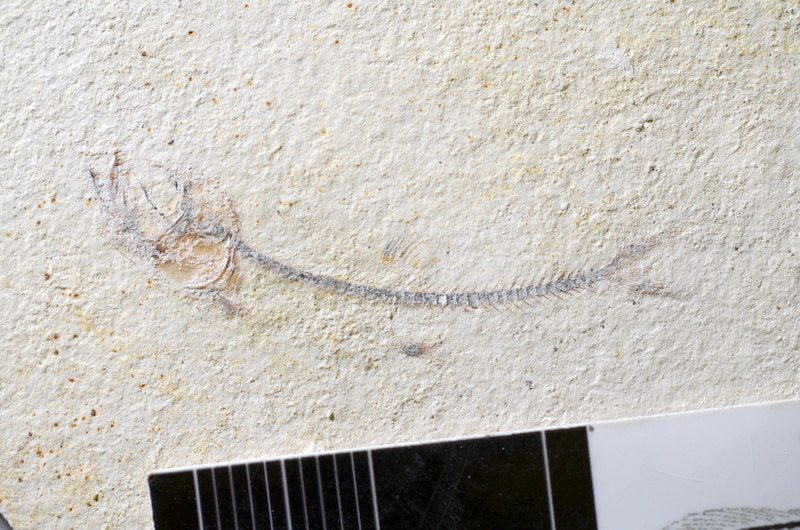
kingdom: Animalia
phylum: Chordata
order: Salmoniformes
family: Orthogonikleithridae
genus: Orthogonikleithrus
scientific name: Orthogonikleithrus hoelli
